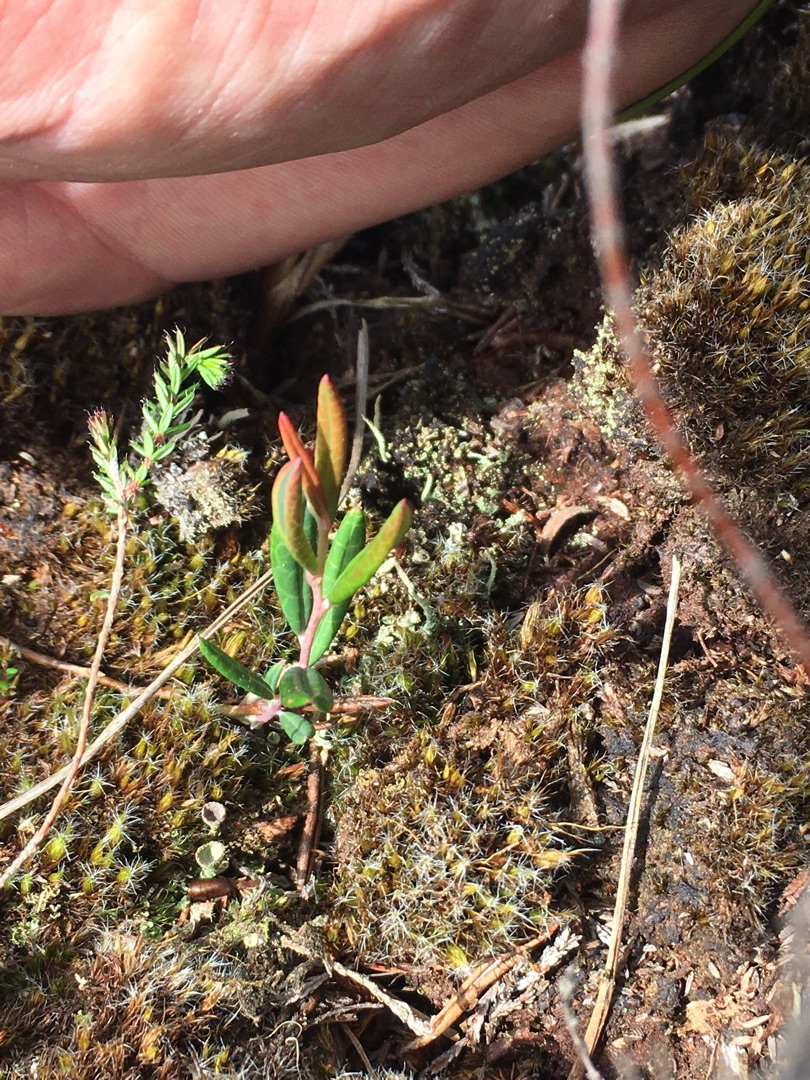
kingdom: Plantae
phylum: Tracheophyta
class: Magnoliopsida
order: Ericales
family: Ericaceae
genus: Andromeda
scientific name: Andromeda polifolia
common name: Rosmarinlyng
